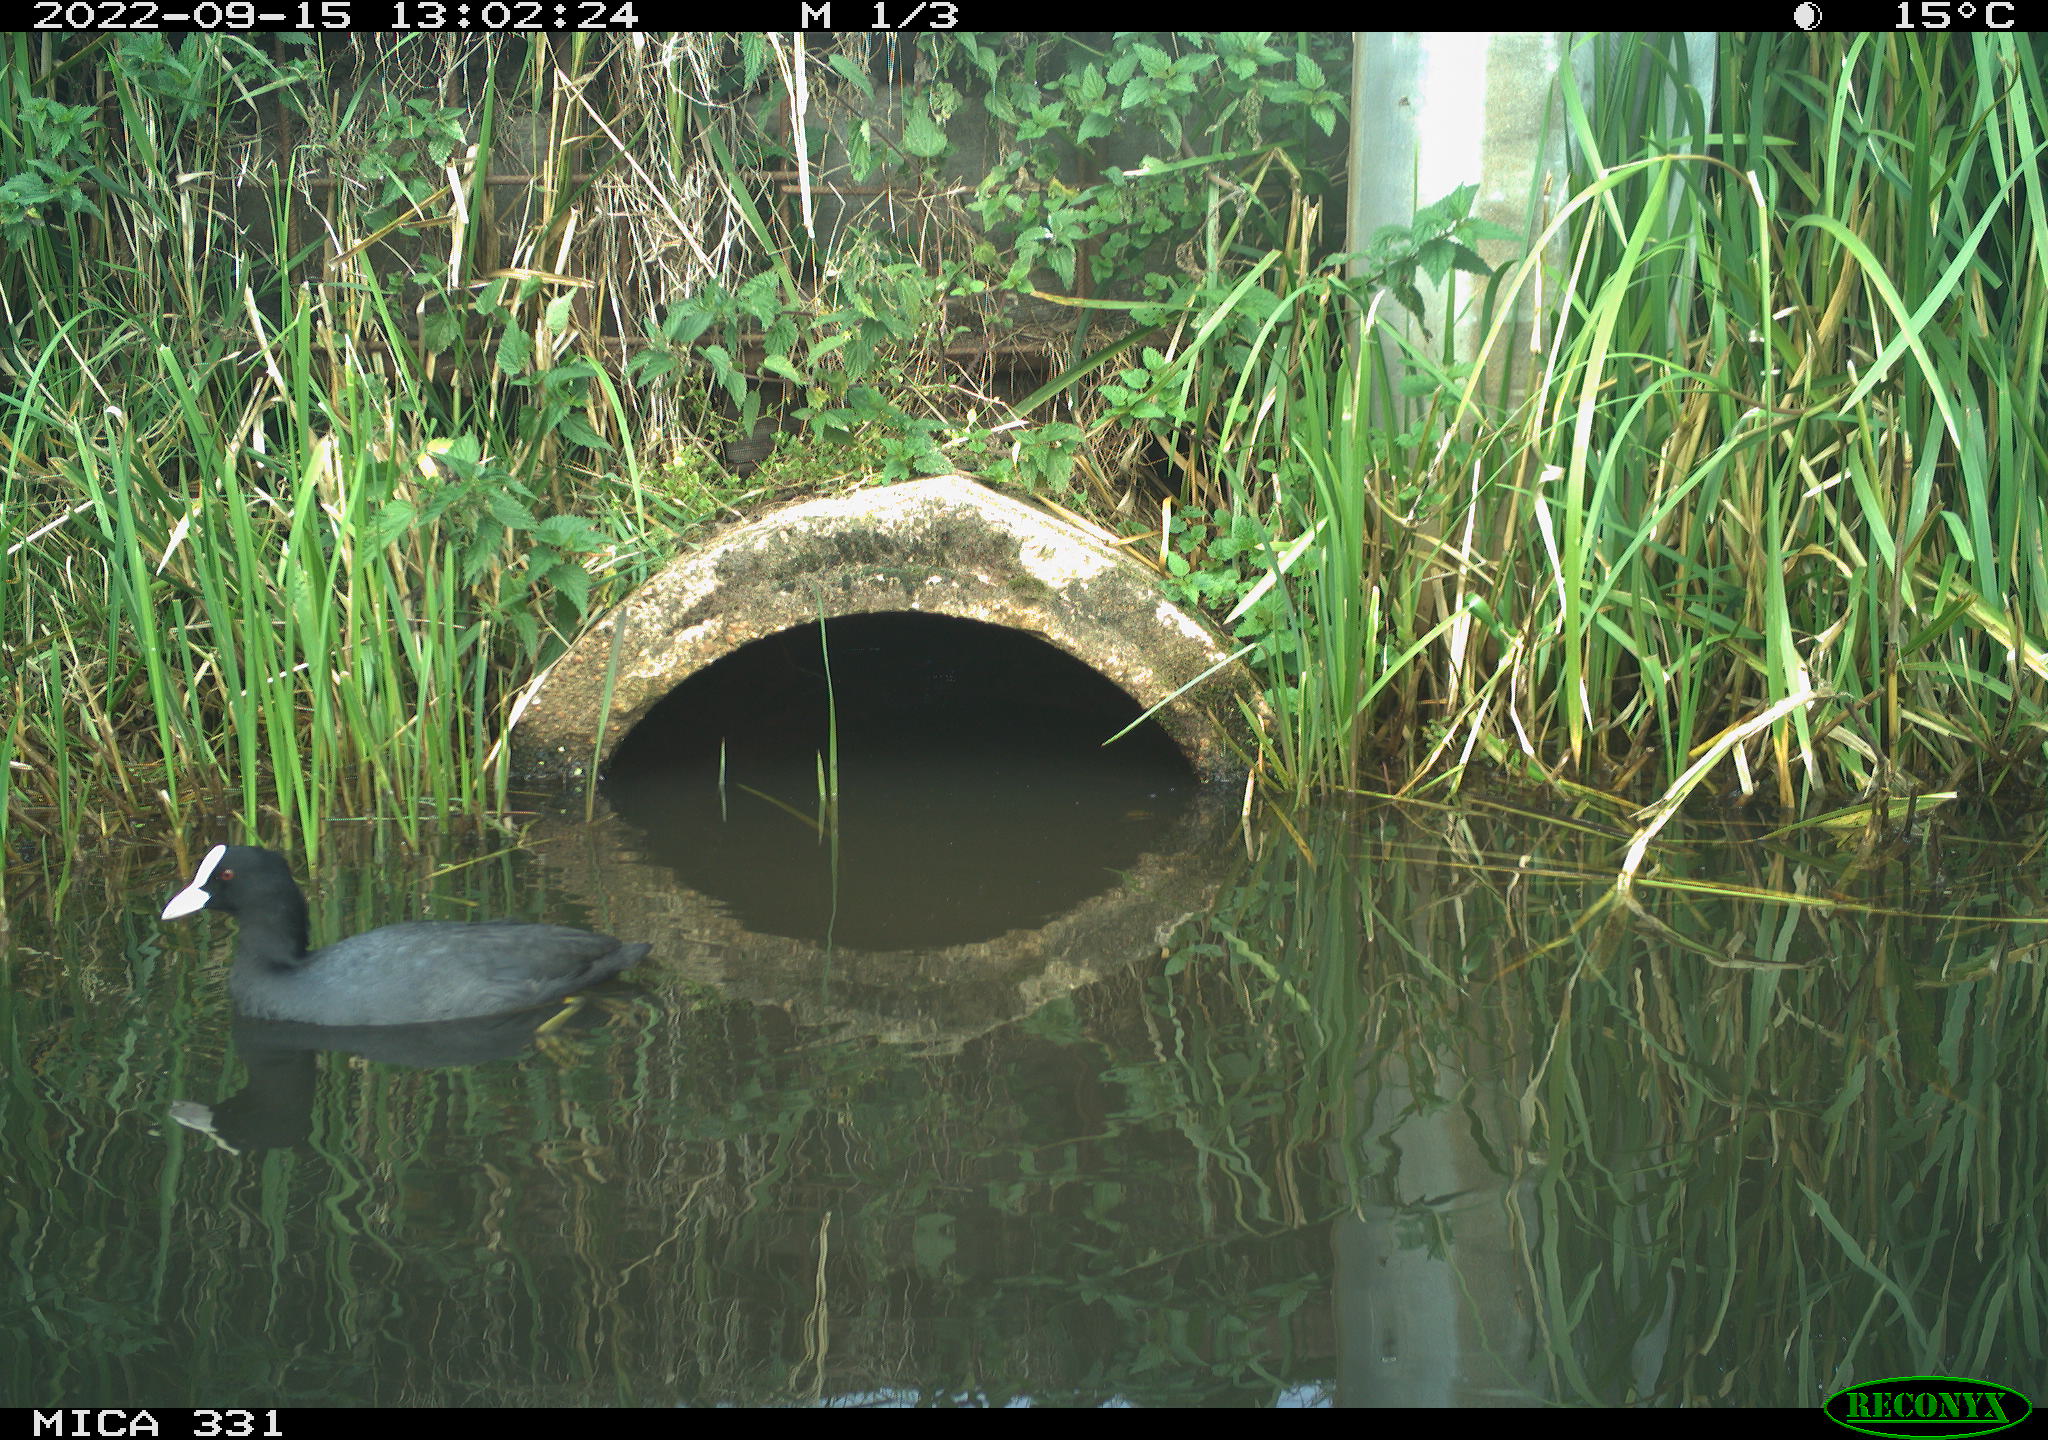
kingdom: Animalia
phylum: Chordata
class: Aves
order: Gruiformes
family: Rallidae
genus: Fulica
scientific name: Fulica atra
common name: Eurasian coot
